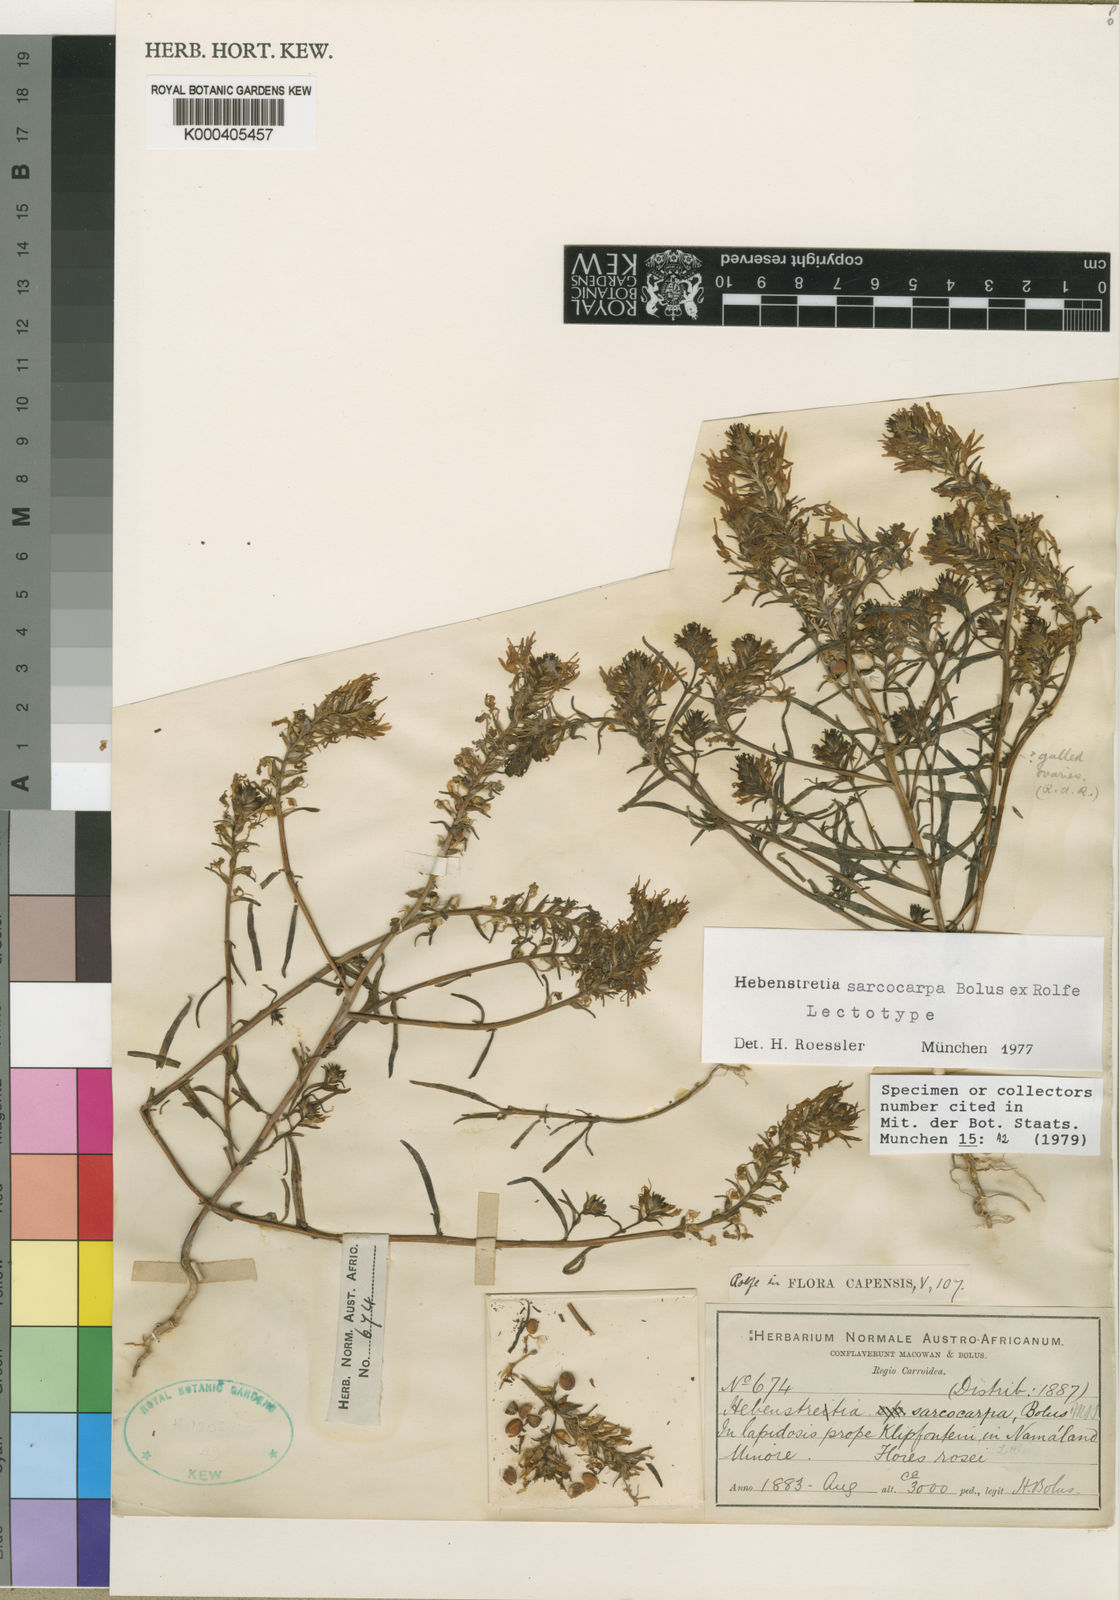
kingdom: Plantae
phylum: Tracheophyta
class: Magnoliopsida
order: Lamiales
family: Scrophulariaceae
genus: Hebenstretia
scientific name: Hebenstretia sarcocarpa
